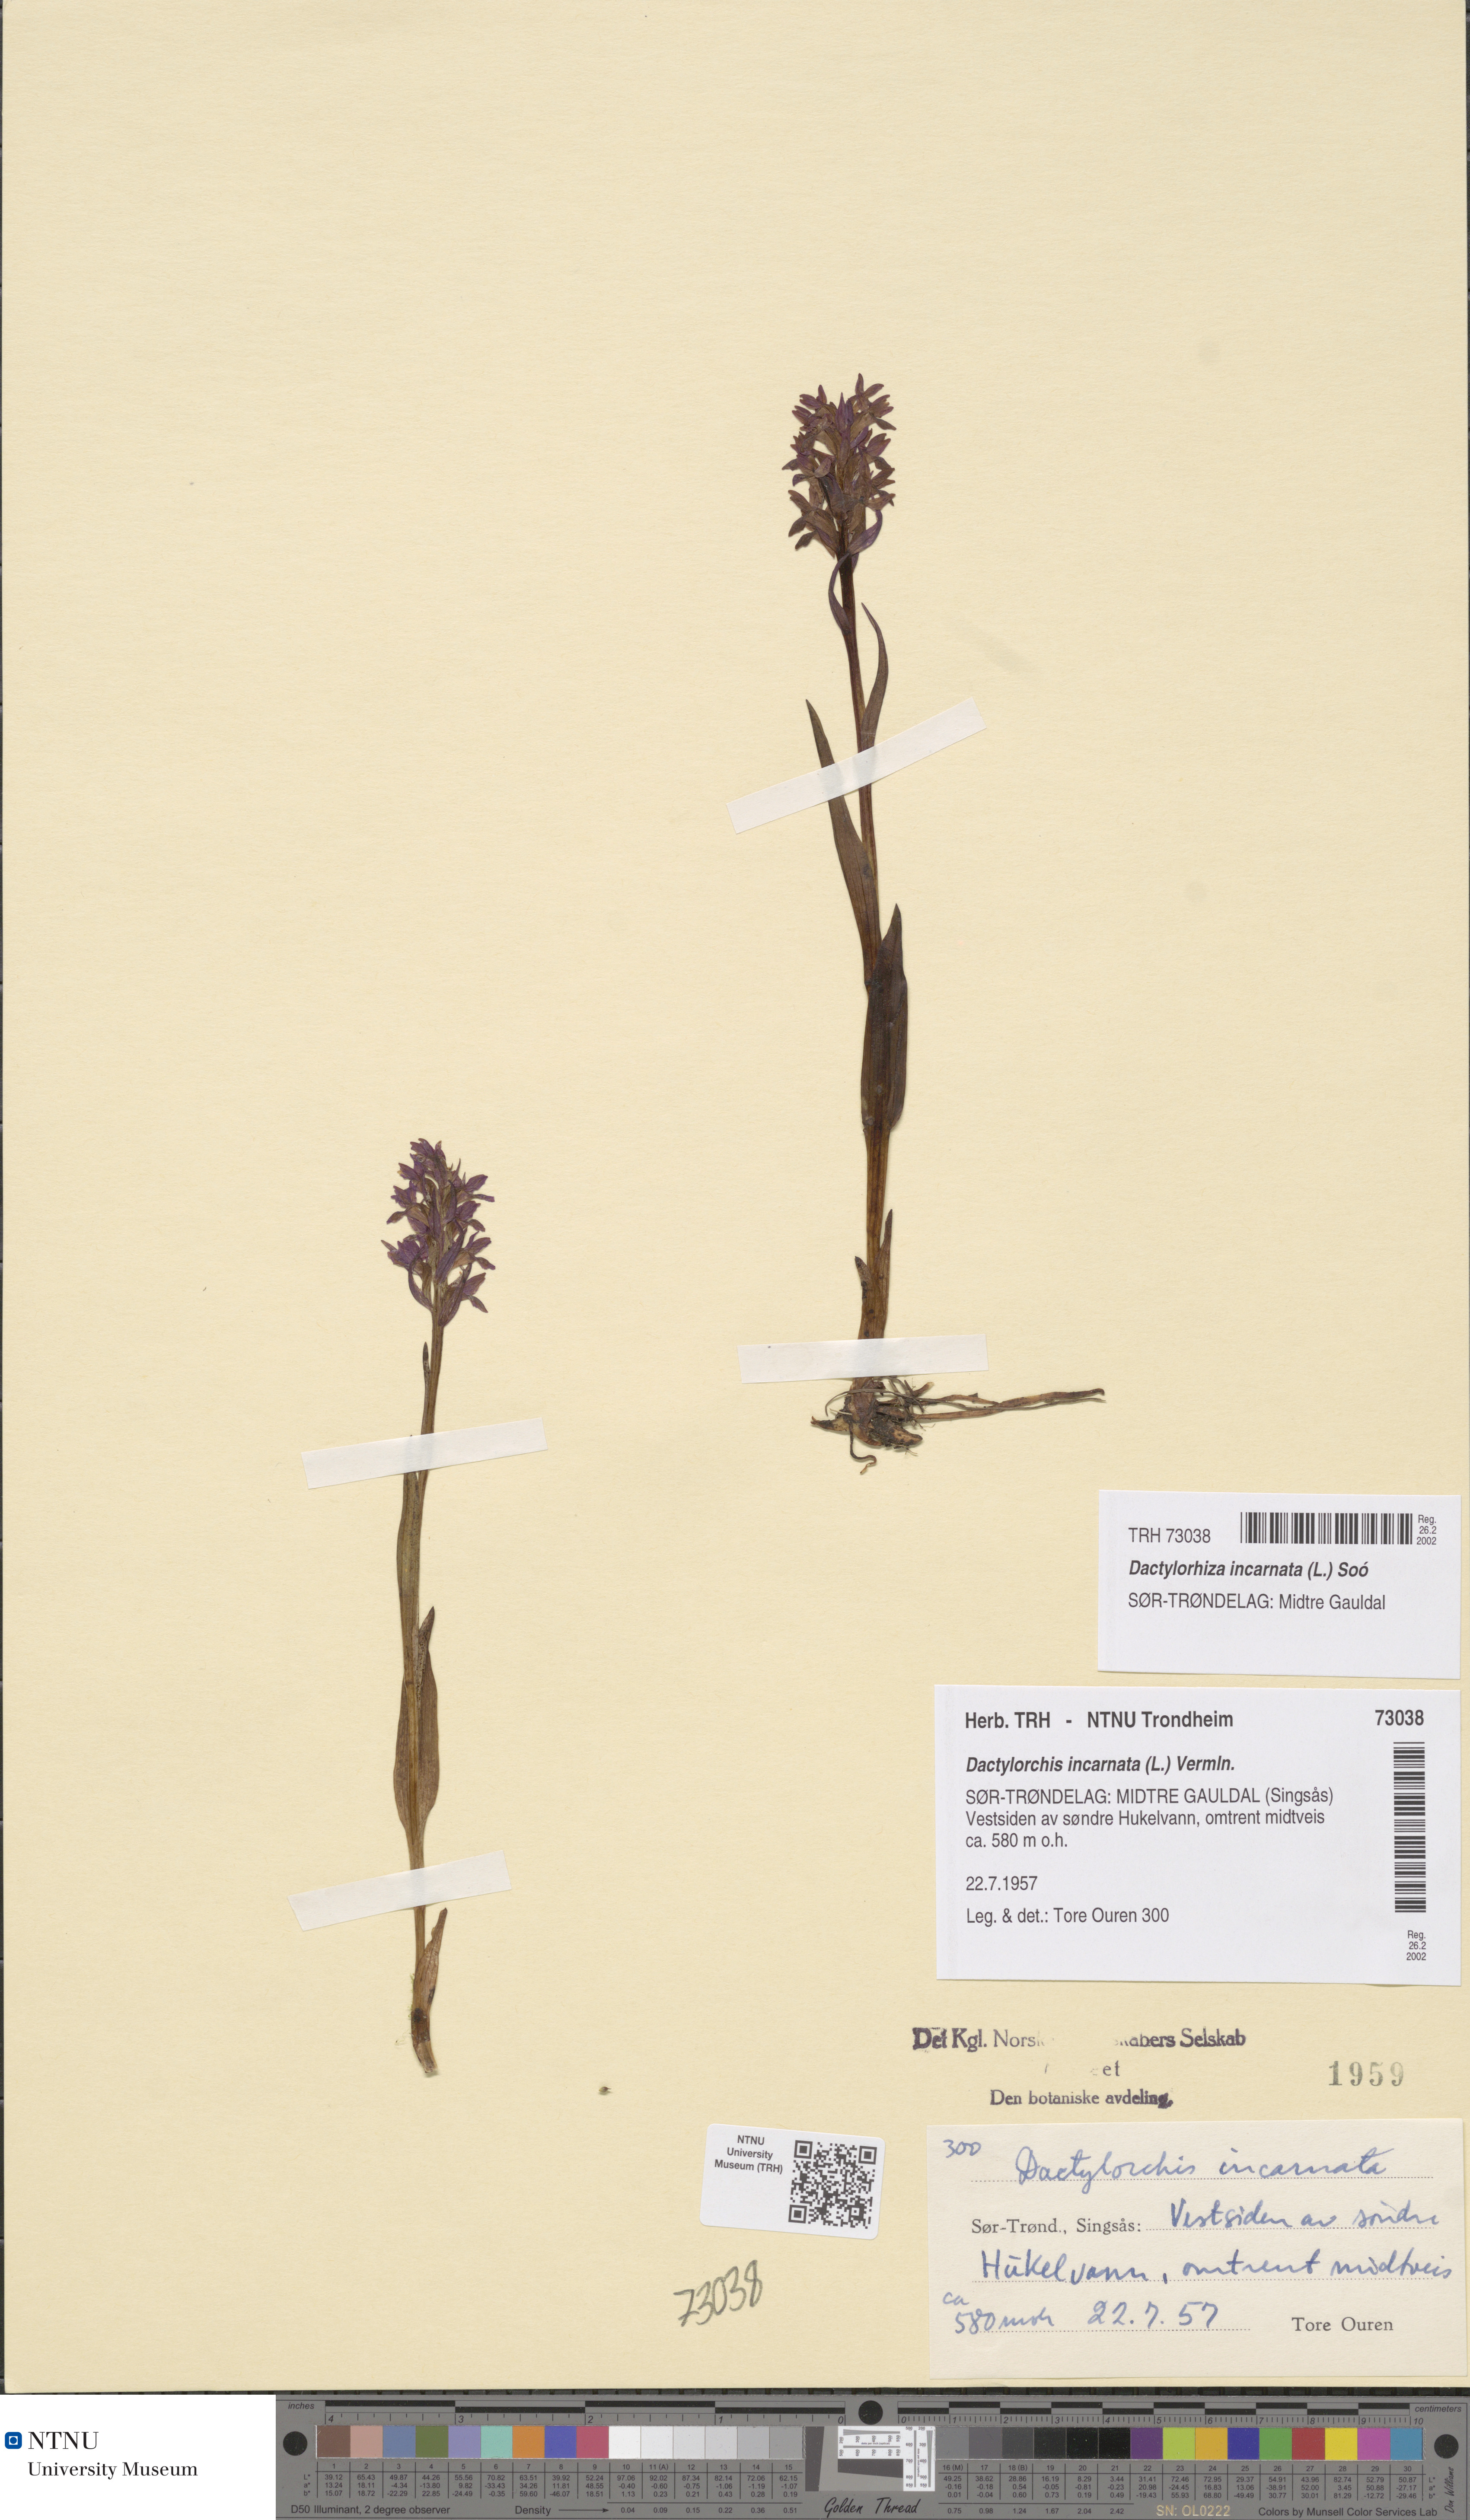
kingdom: Plantae
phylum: Tracheophyta
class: Liliopsida
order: Asparagales
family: Orchidaceae
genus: Dactylorhiza
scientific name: Dactylorhiza incarnata
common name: Early marsh-orchid
